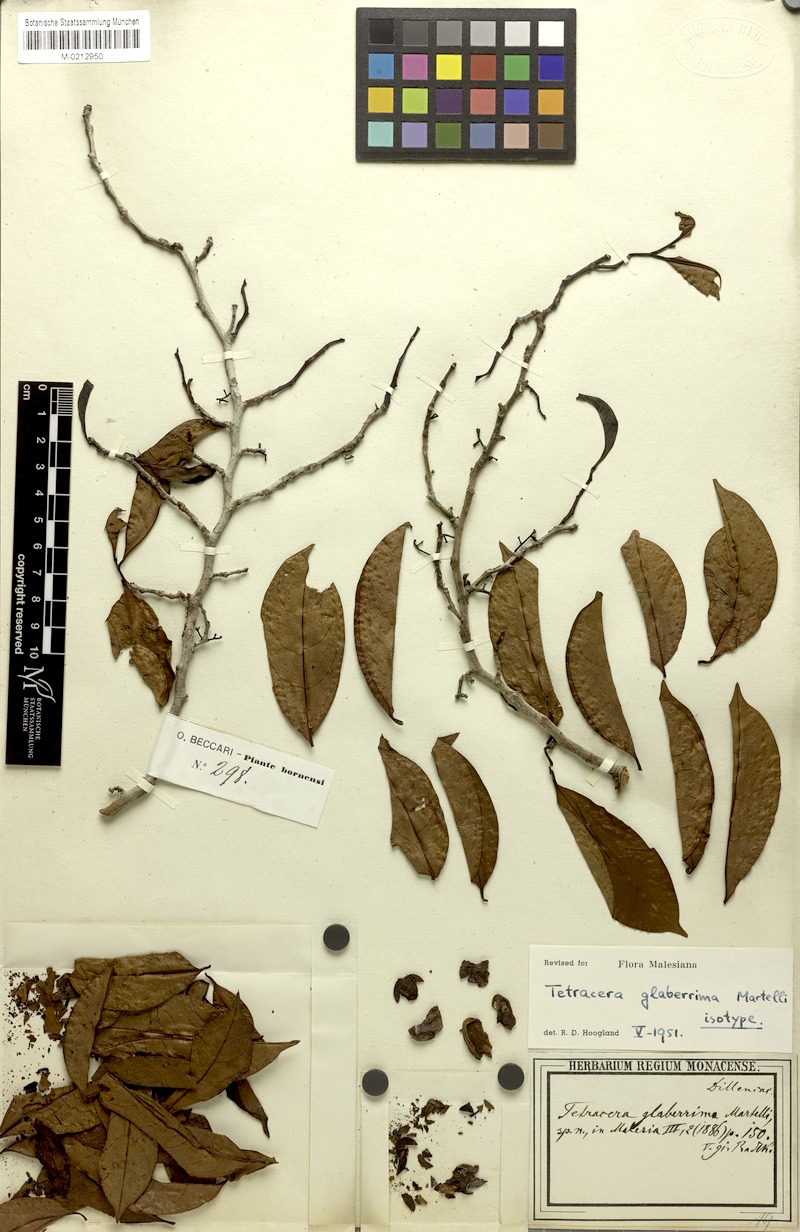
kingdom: Plantae
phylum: Tracheophyta
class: Magnoliopsida
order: Dilleniales
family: Dilleniaceae
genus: Tetracera
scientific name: Tetracera glaberrima
